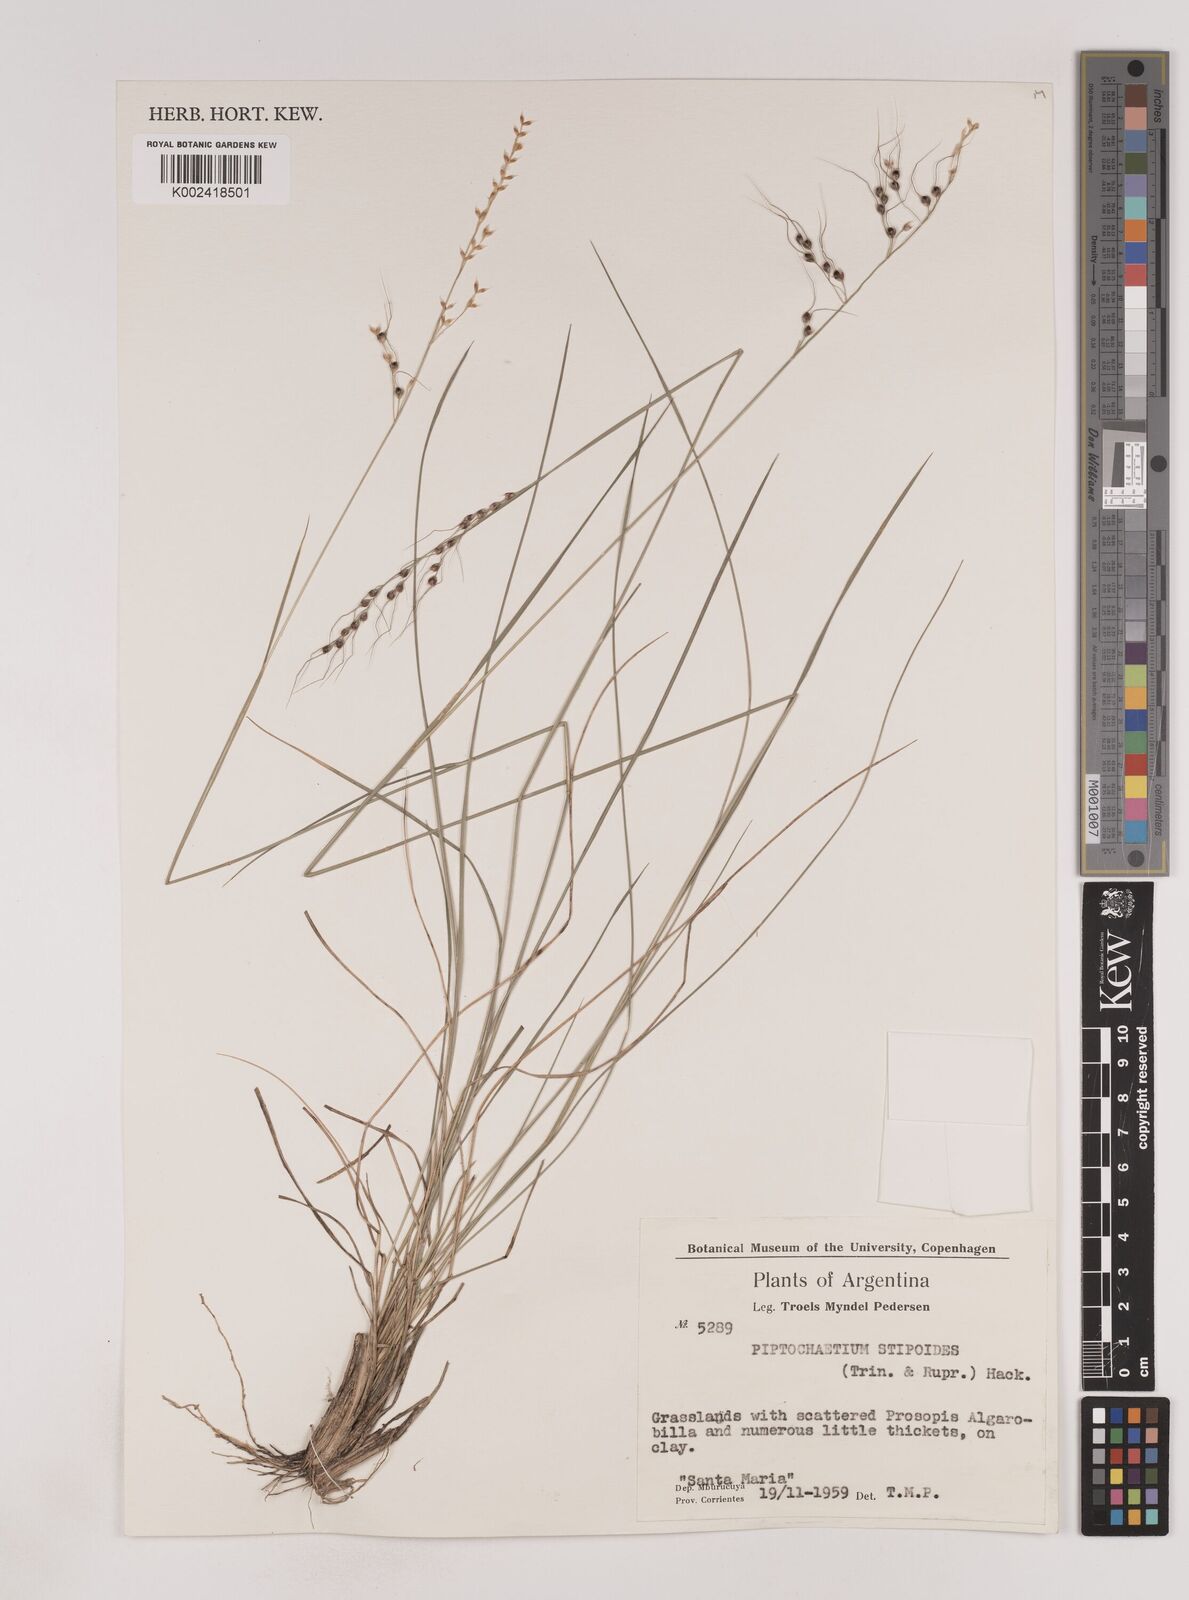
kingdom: Plantae
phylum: Tracheophyta
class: Liliopsida
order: Poales
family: Poaceae
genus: Piptochaetium
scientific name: Piptochaetium stipoides
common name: Purple speargrass
